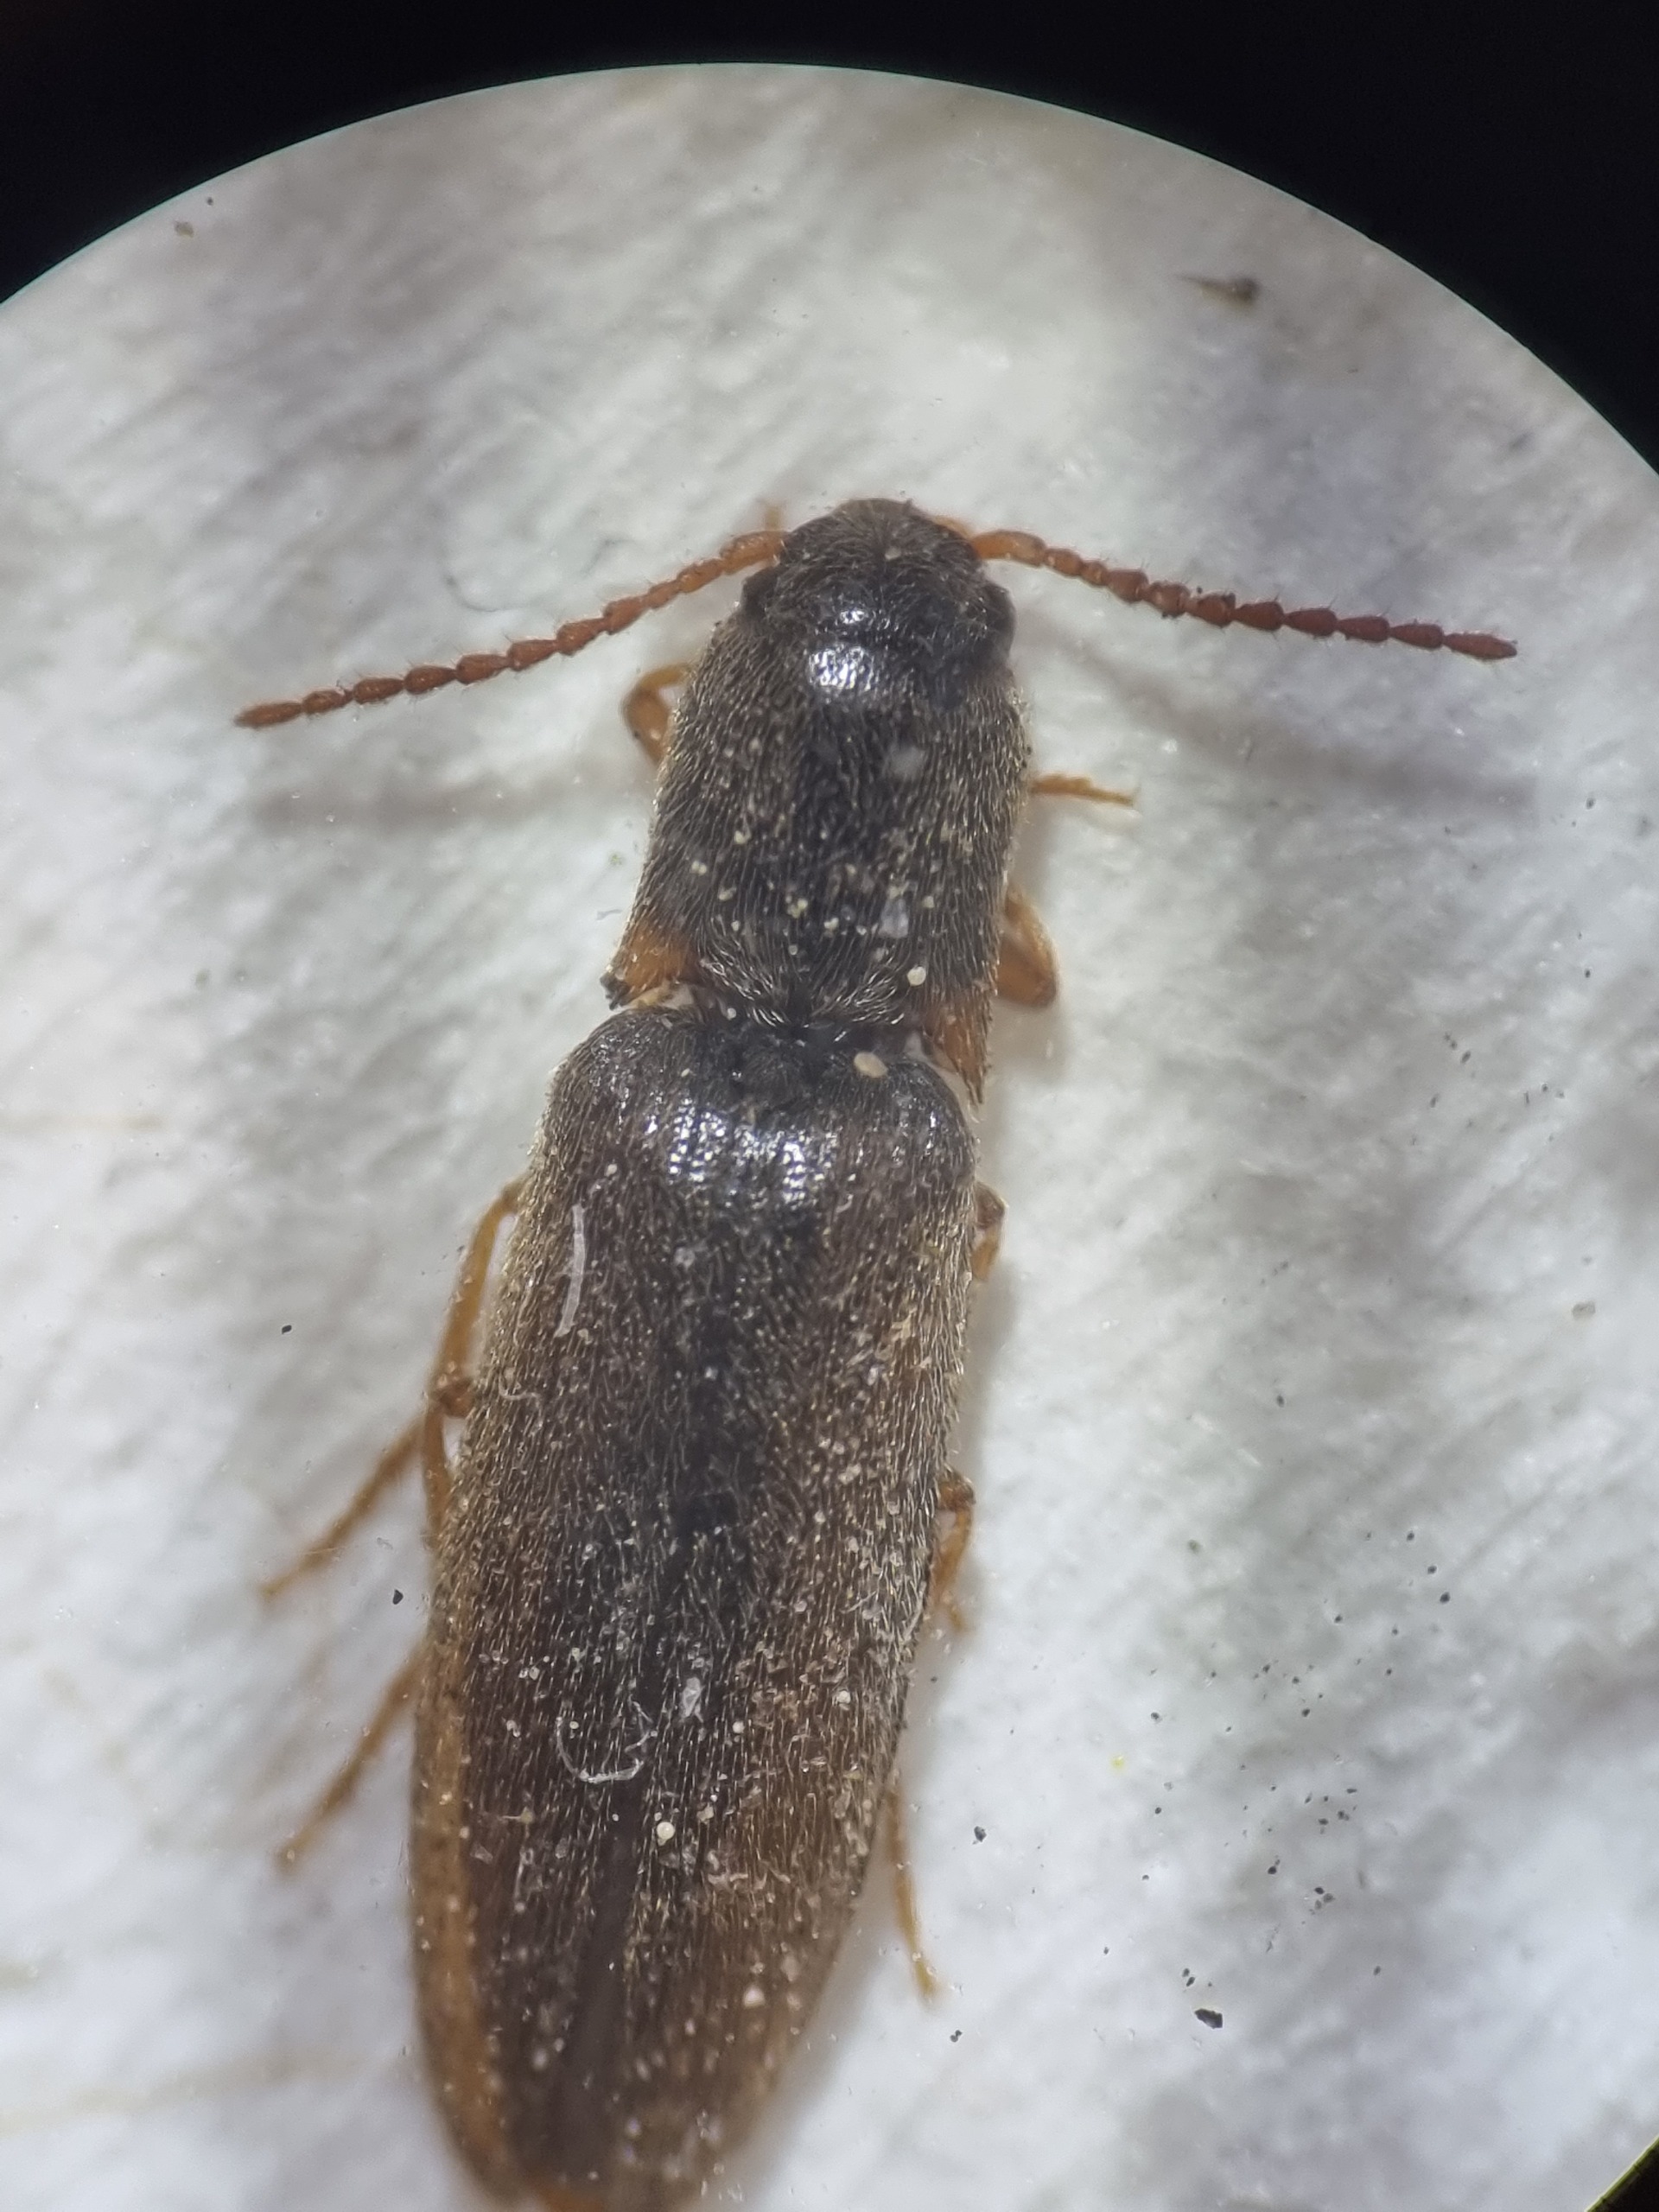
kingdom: Animalia
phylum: Arthropoda
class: Insecta
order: Coleoptera
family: Elateridae
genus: Agriotes
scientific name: Agriotes acuminatus
